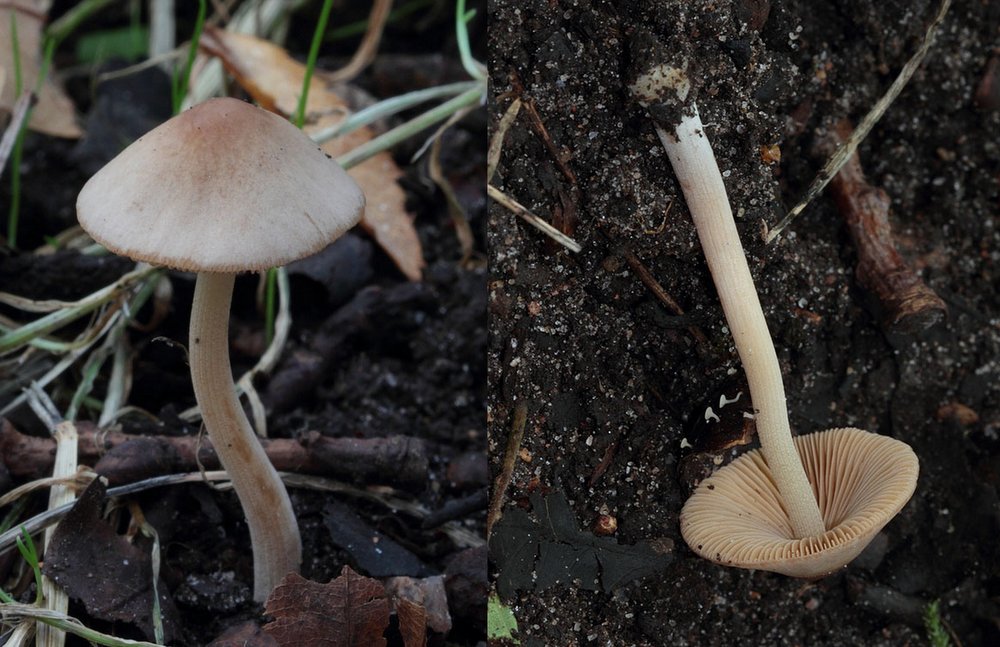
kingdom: Fungi
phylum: Basidiomycota
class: Agaricomycetes
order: Agaricales
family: Bolbitiaceae
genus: Conocybe
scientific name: Conocybe macrocephala
